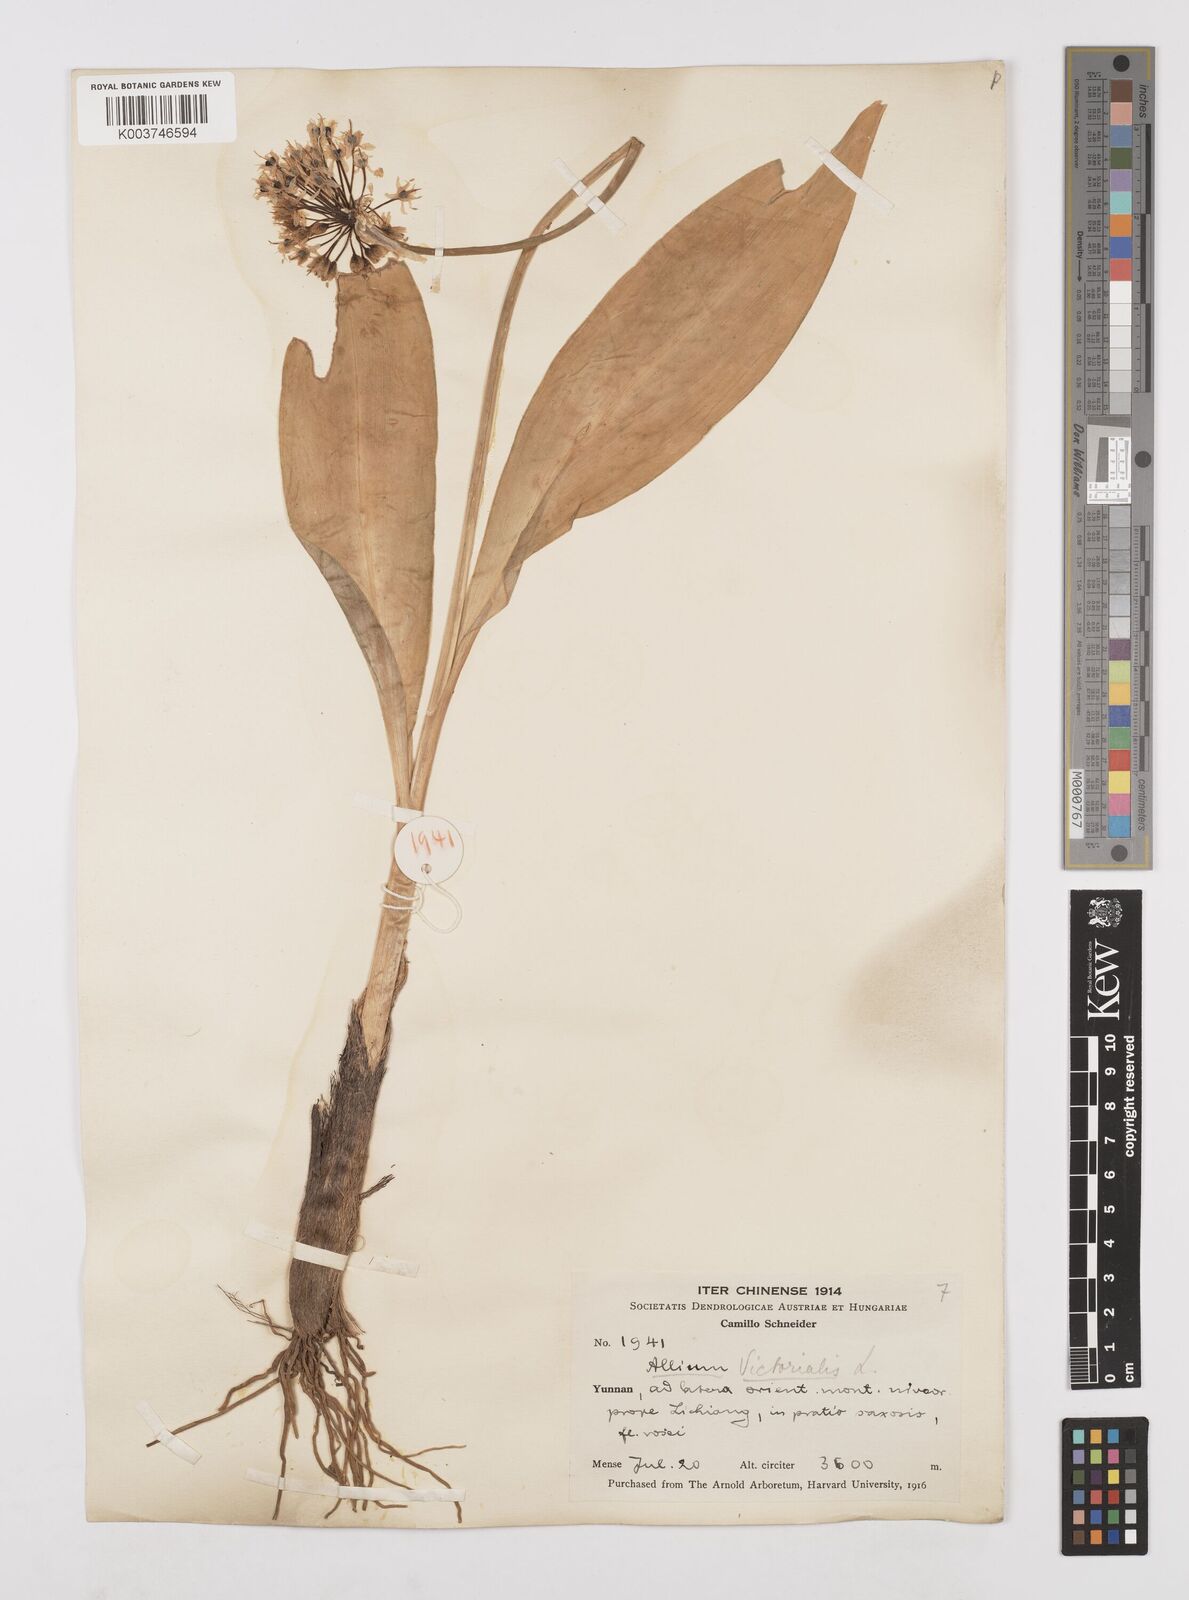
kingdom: Plantae
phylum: Tracheophyta
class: Liliopsida
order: Asparagales
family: Amaryllidaceae
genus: Allium
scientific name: Allium victorialis
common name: Alpine leek
